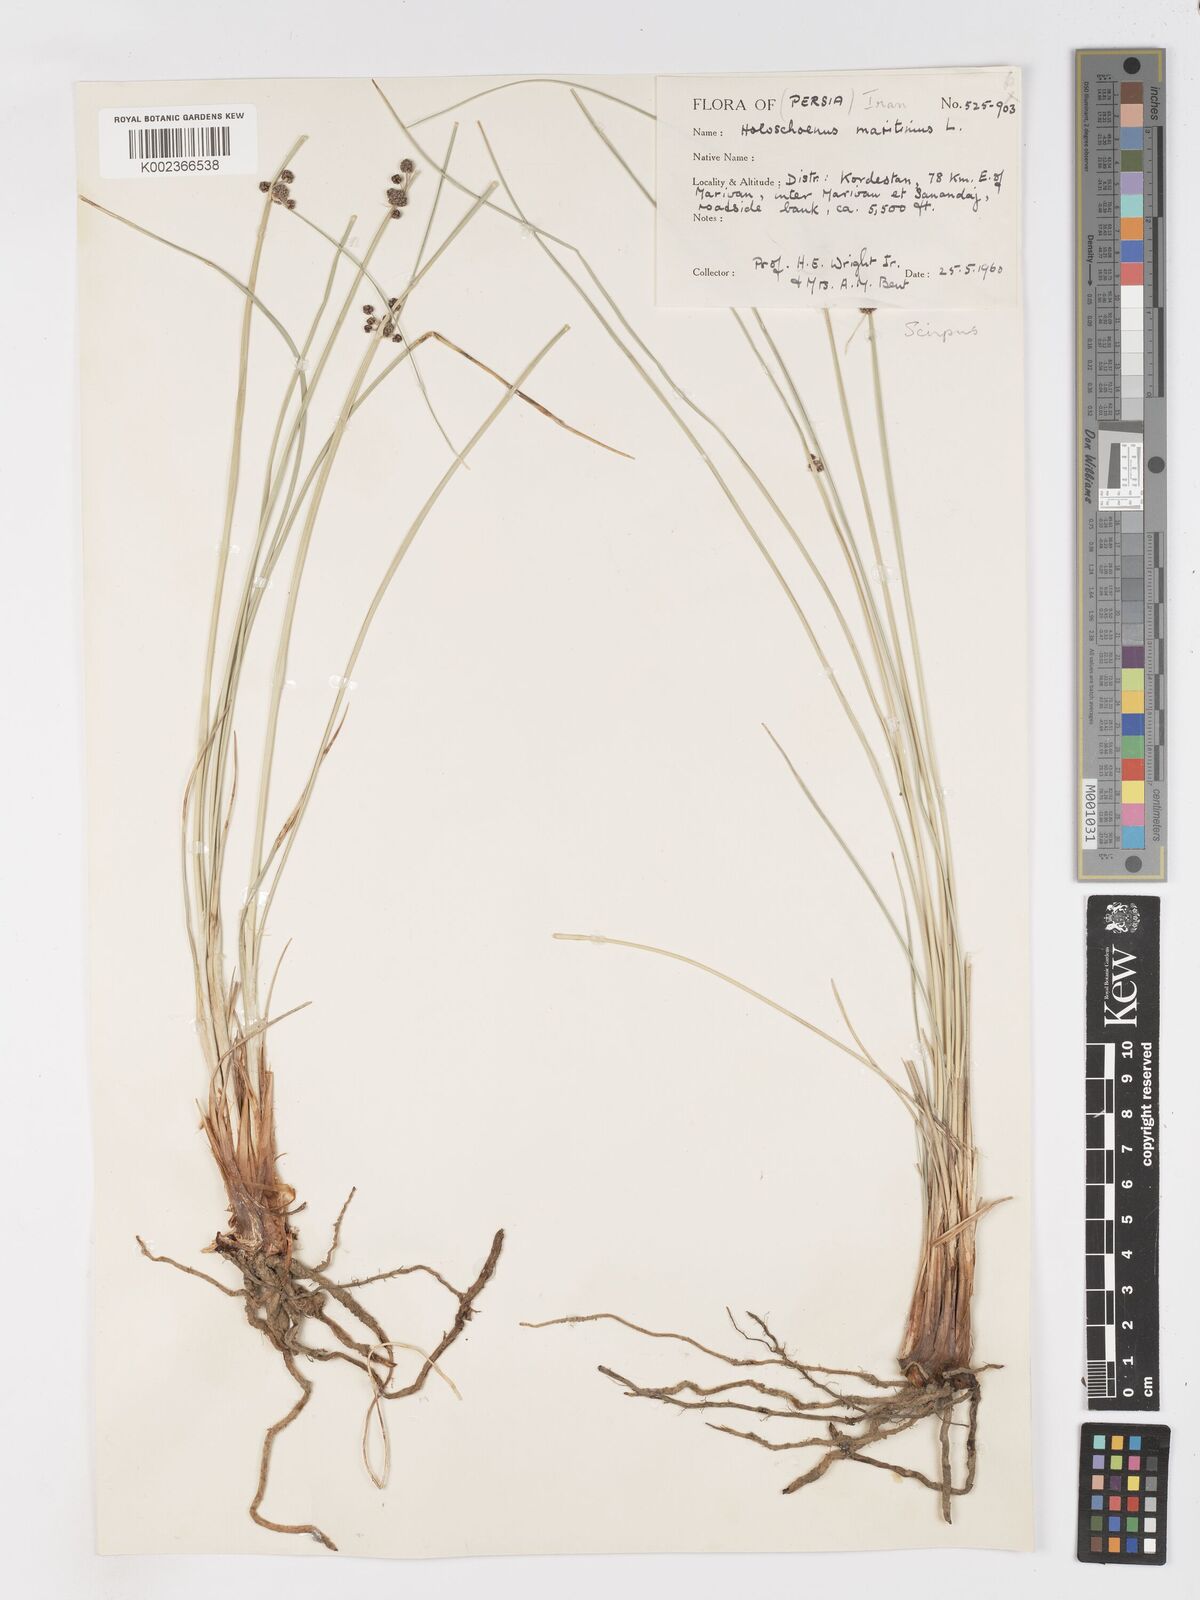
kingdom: Plantae
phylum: Tracheophyta
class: Liliopsida
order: Poales
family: Cyperaceae
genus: Scirpoides
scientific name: Scirpoides holoschoenus
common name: Round-headed club-rush
